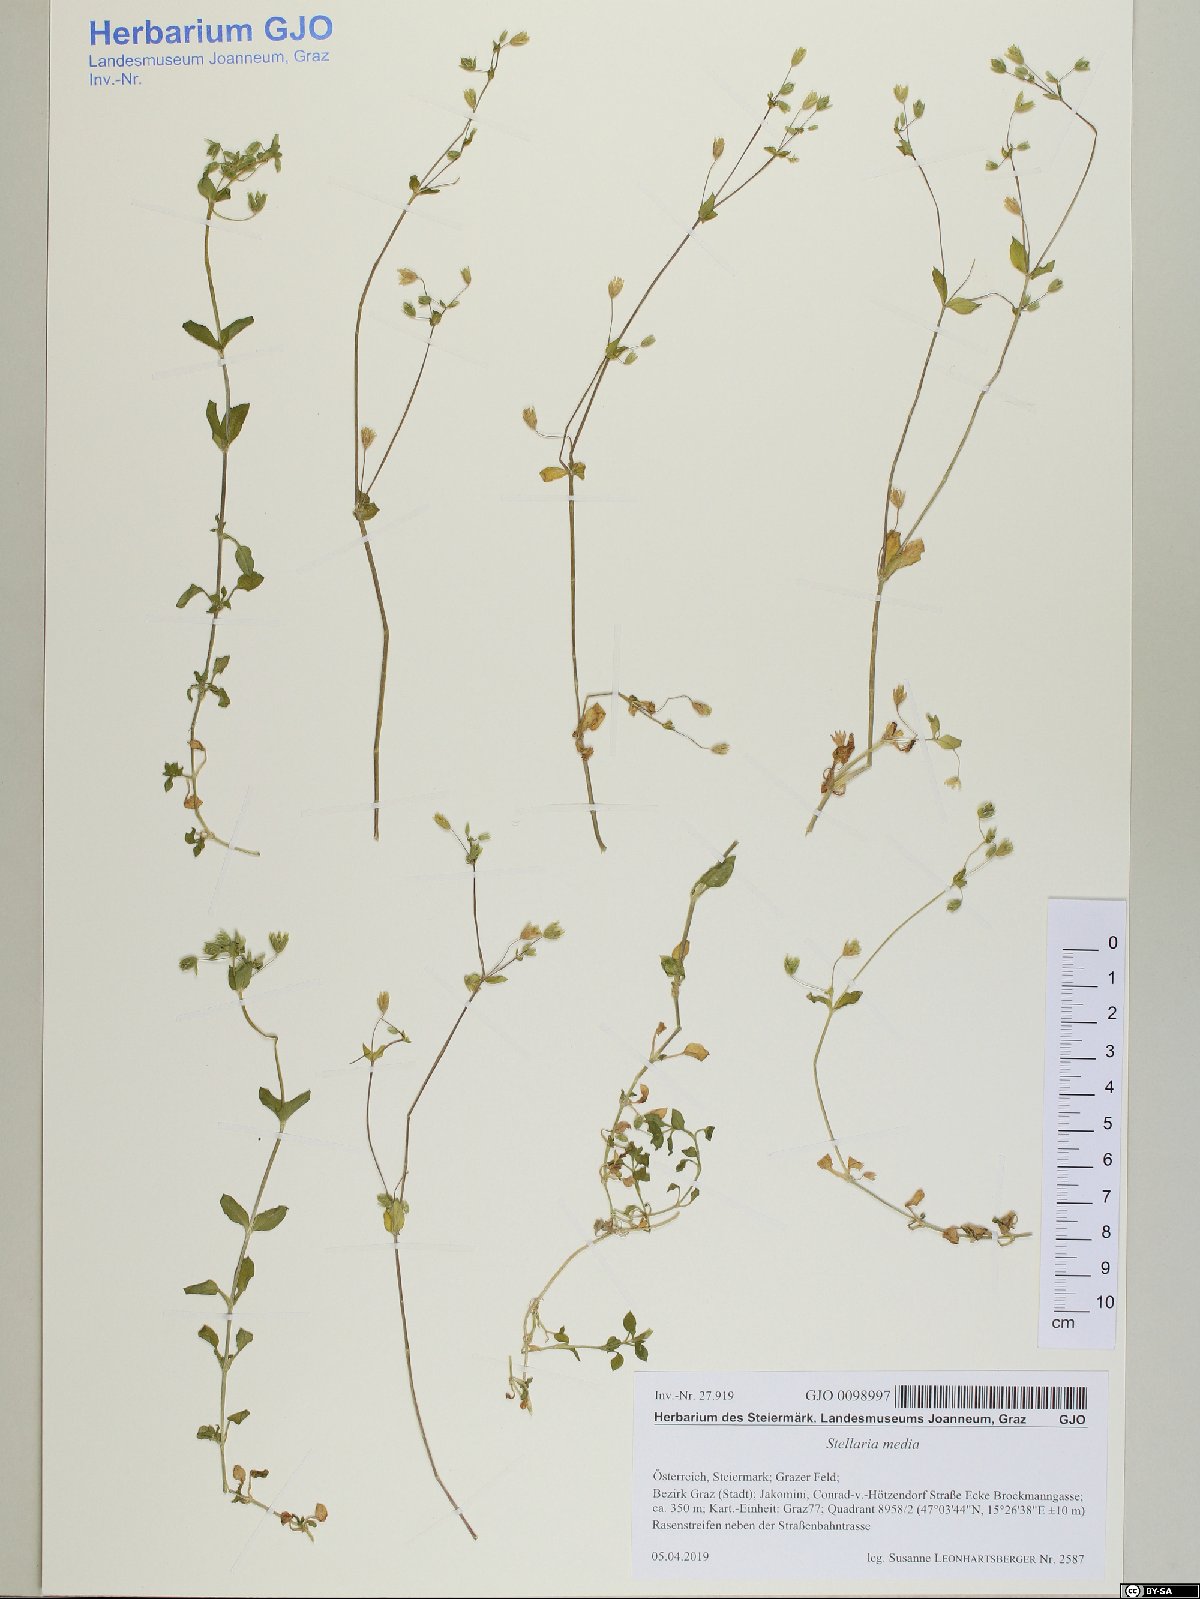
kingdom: Plantae
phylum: Tracheophyta
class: Magnoliopsida
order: Caryophyllales
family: Caryophyllaceae
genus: Stellaria
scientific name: Stellaria media
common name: Common chickweed
